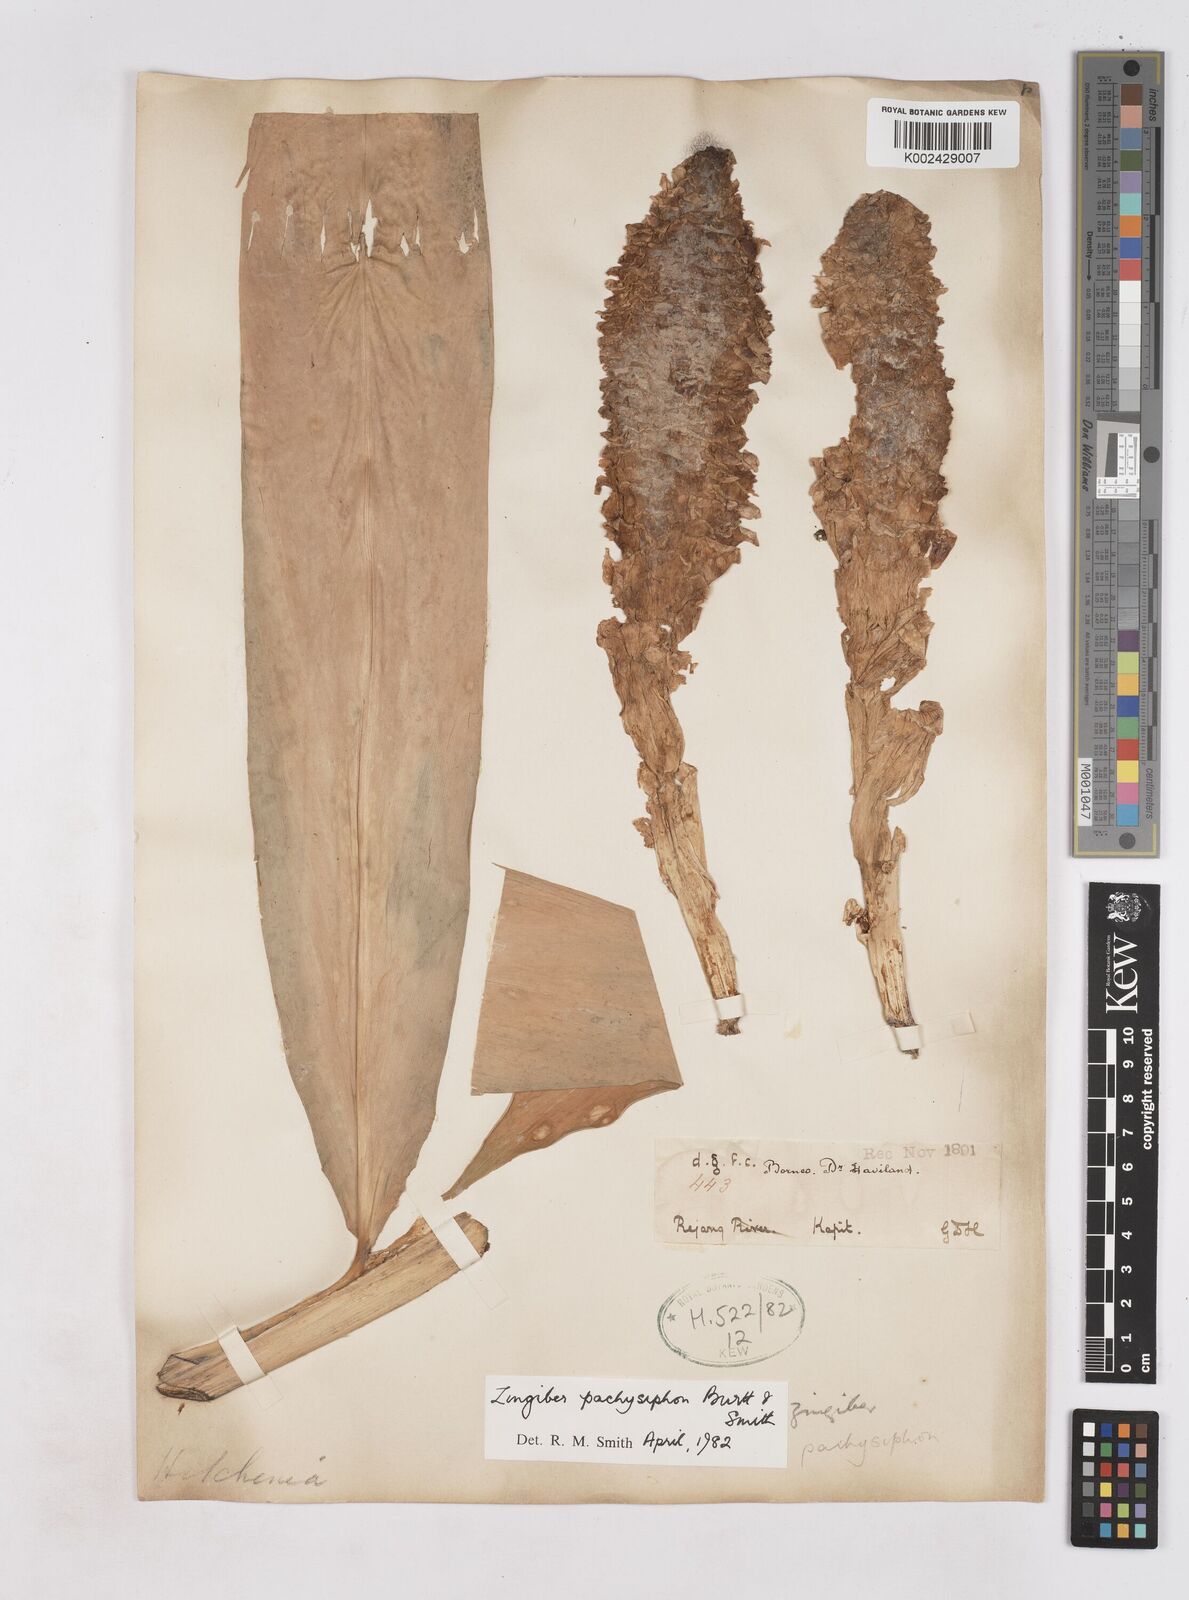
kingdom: Plantae
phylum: Tracheophyta
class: Liliopsida
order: Zingiberales
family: Zingiberaceae
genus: Zingiber
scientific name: Zingiber pachysiphon
